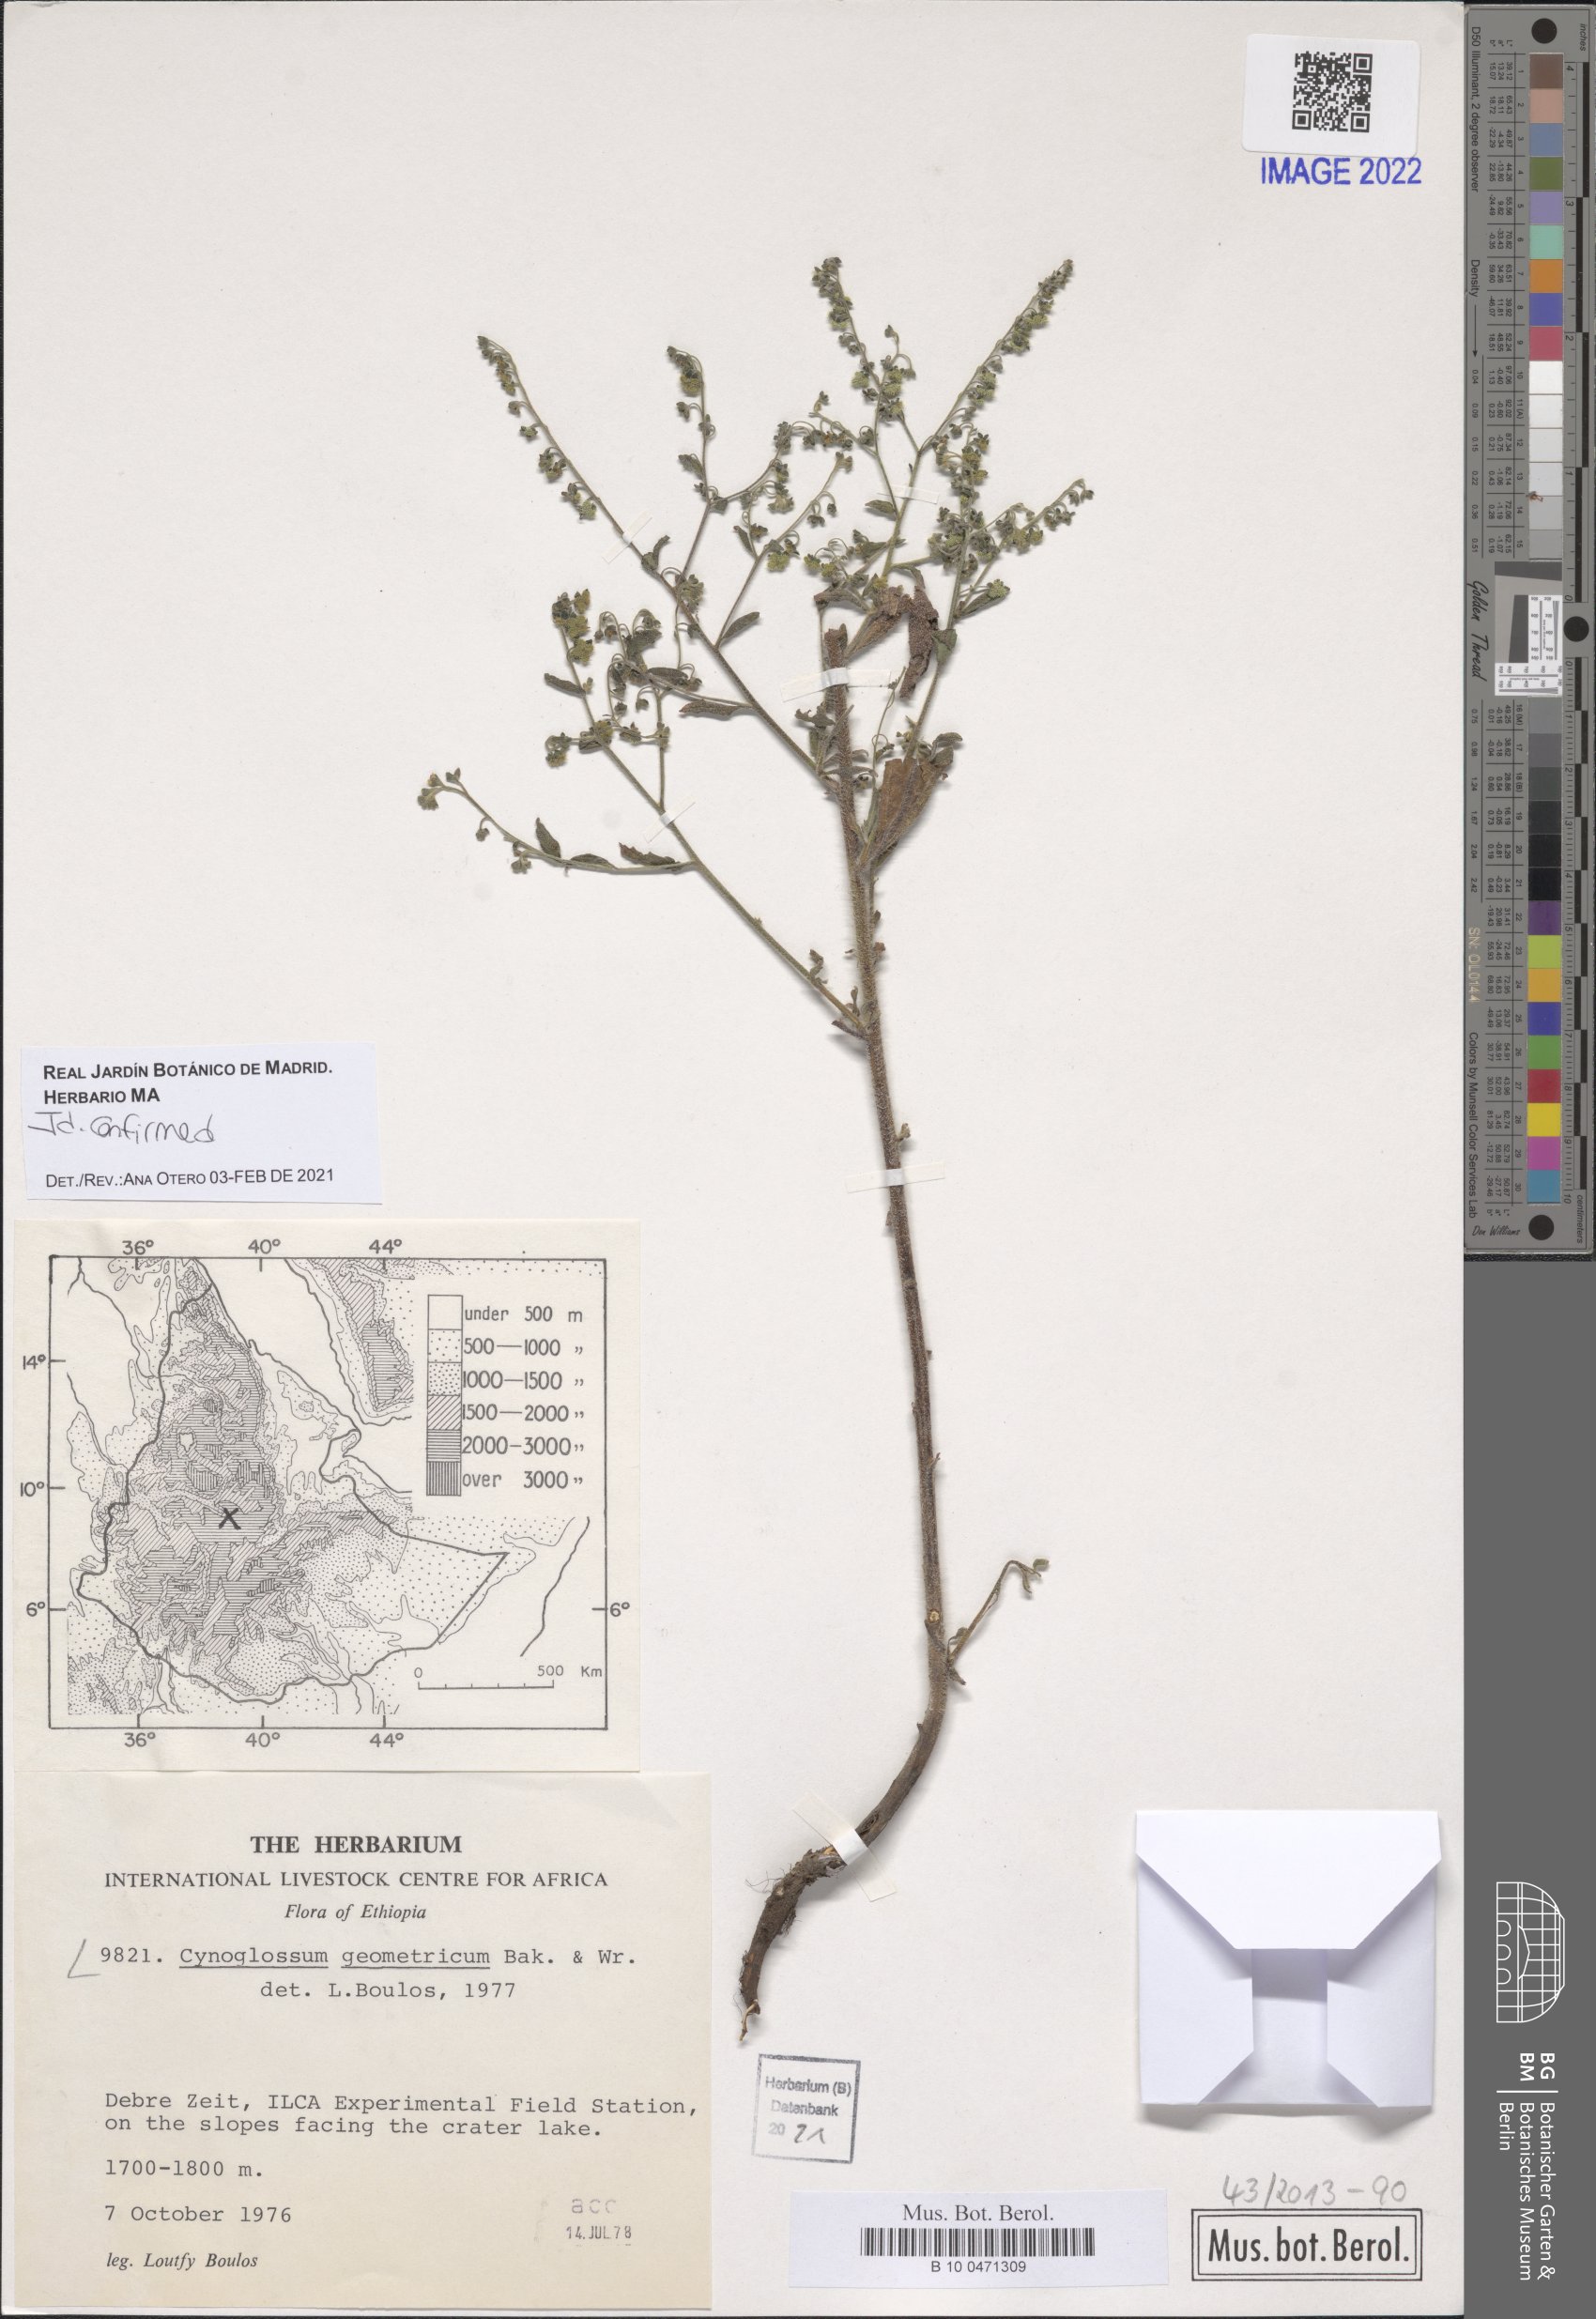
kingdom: Plantae
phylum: Tracheophyta
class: Magnoliopsida
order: Boraginales
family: Boraginaceae
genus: Paracynoglossum
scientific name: Paracynoglossum geometricum
